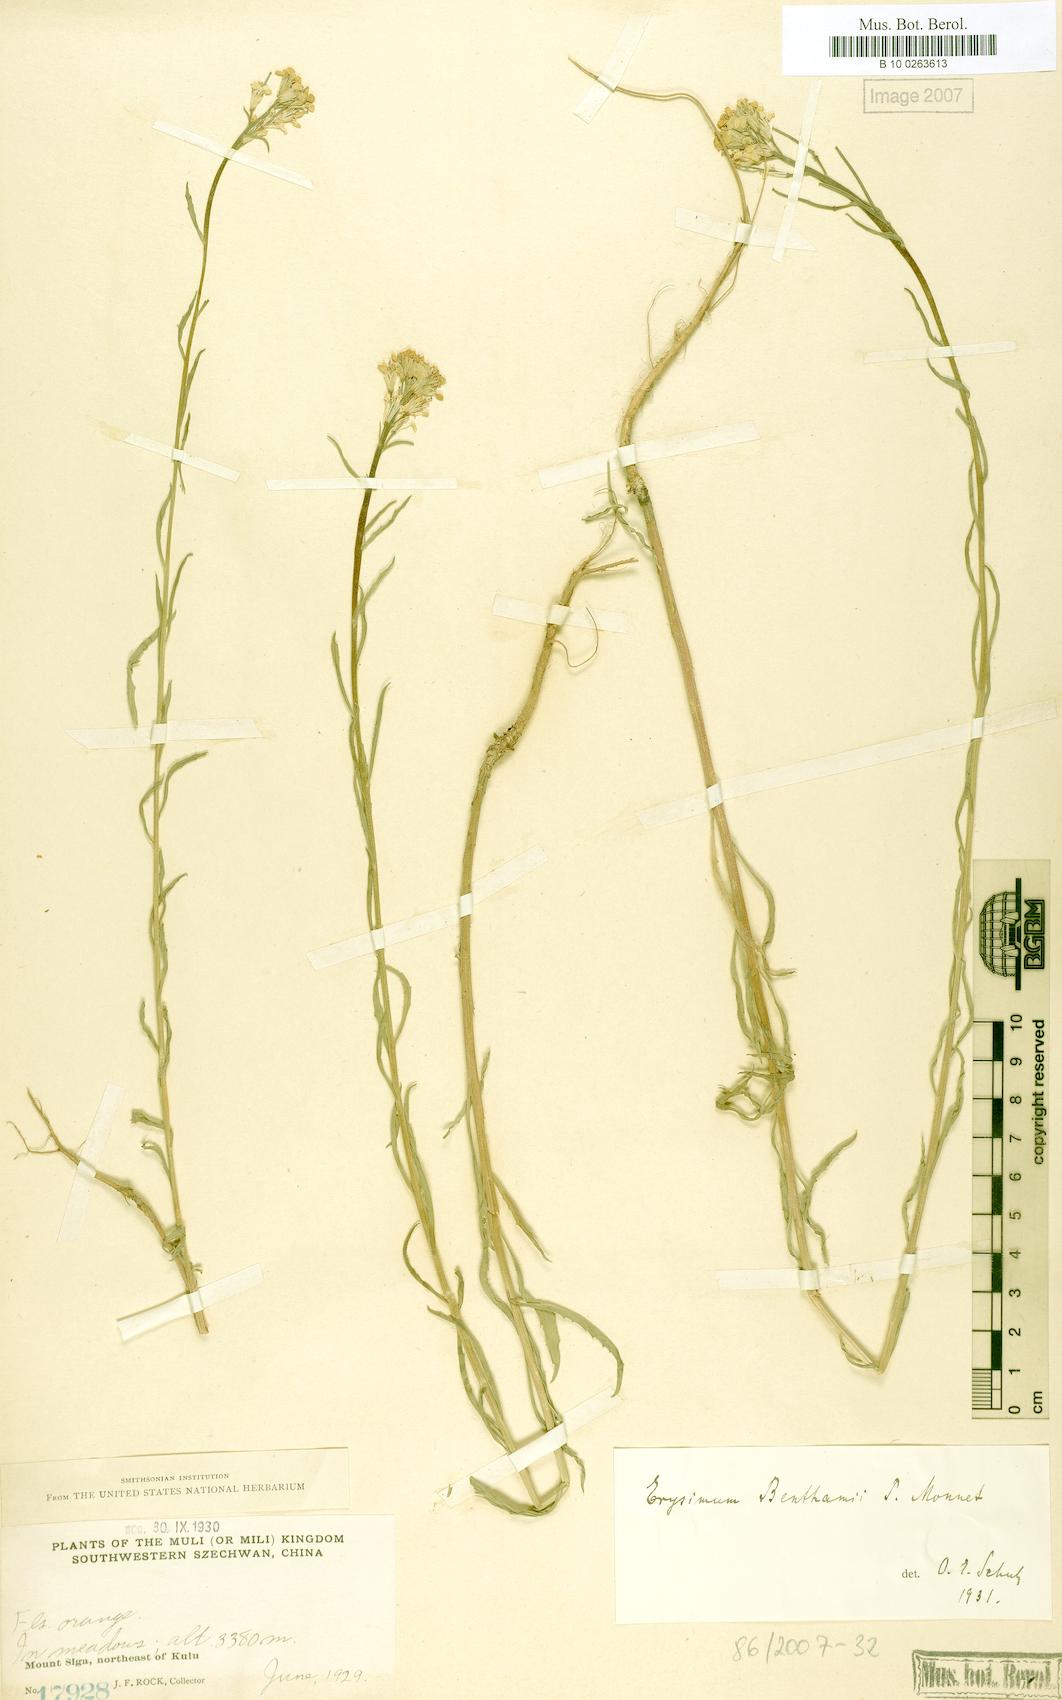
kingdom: Plantae
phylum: Tracheophyta
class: Magnoliopsida
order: Brassicales
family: Brassicaceae
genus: Erysimum
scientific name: Erysimum benthamii
